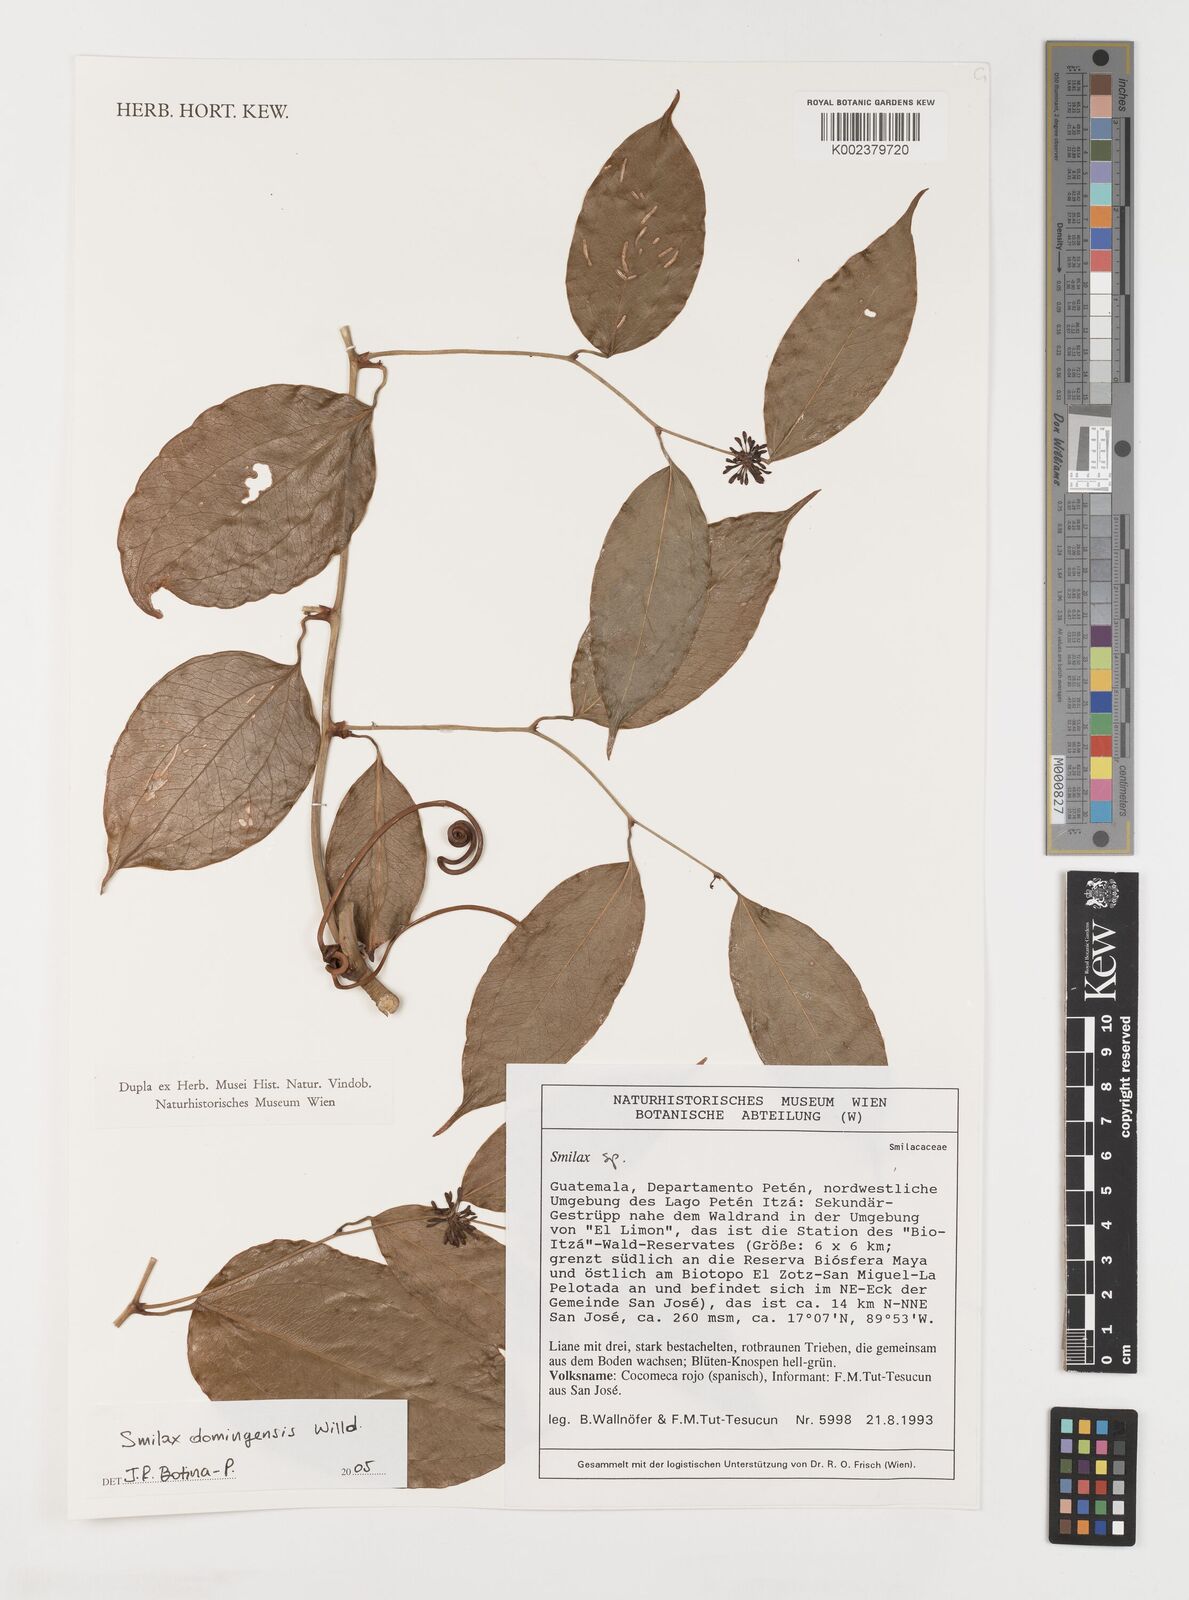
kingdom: Plantae
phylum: Tracheophyta
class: Liliopsida
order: Liliales
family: Smilacaceae
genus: Smilax
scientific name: Smilax domingensis
